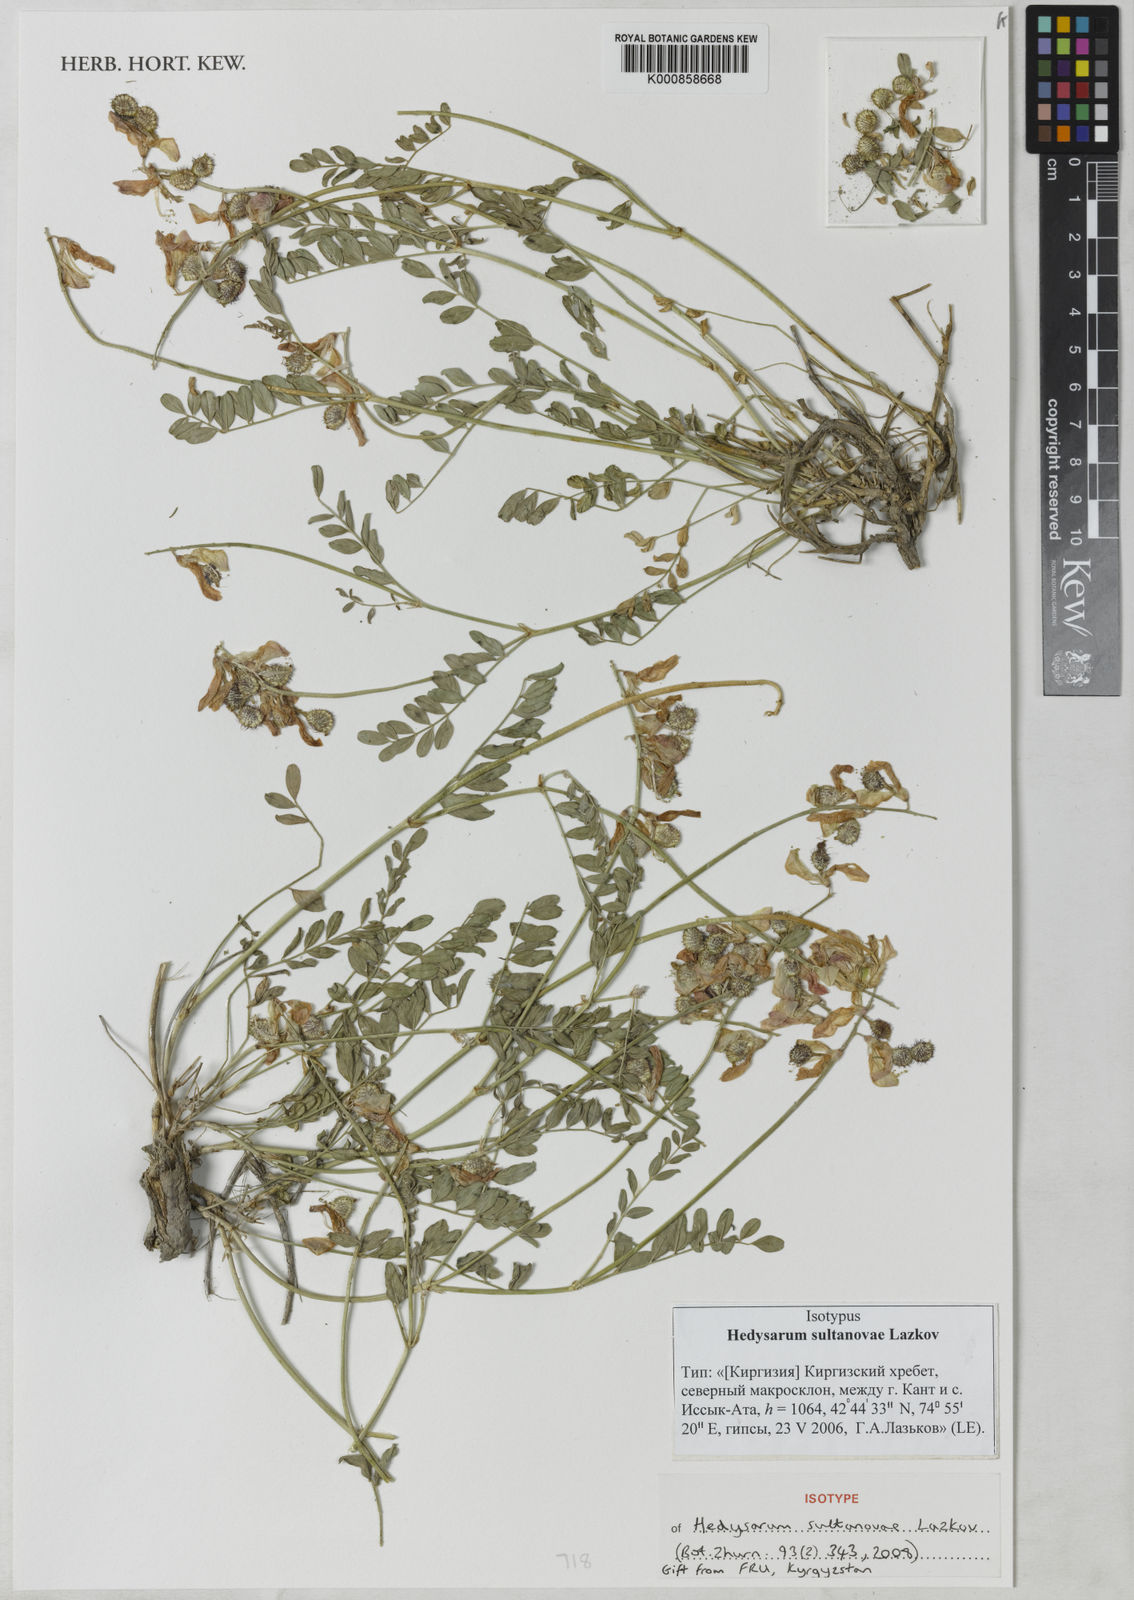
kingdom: Plantae
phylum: Tracheophyta
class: Magnoliopsida
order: Fabales
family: Fabaceae
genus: Hedysarum
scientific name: Hedysarum sultanovae
